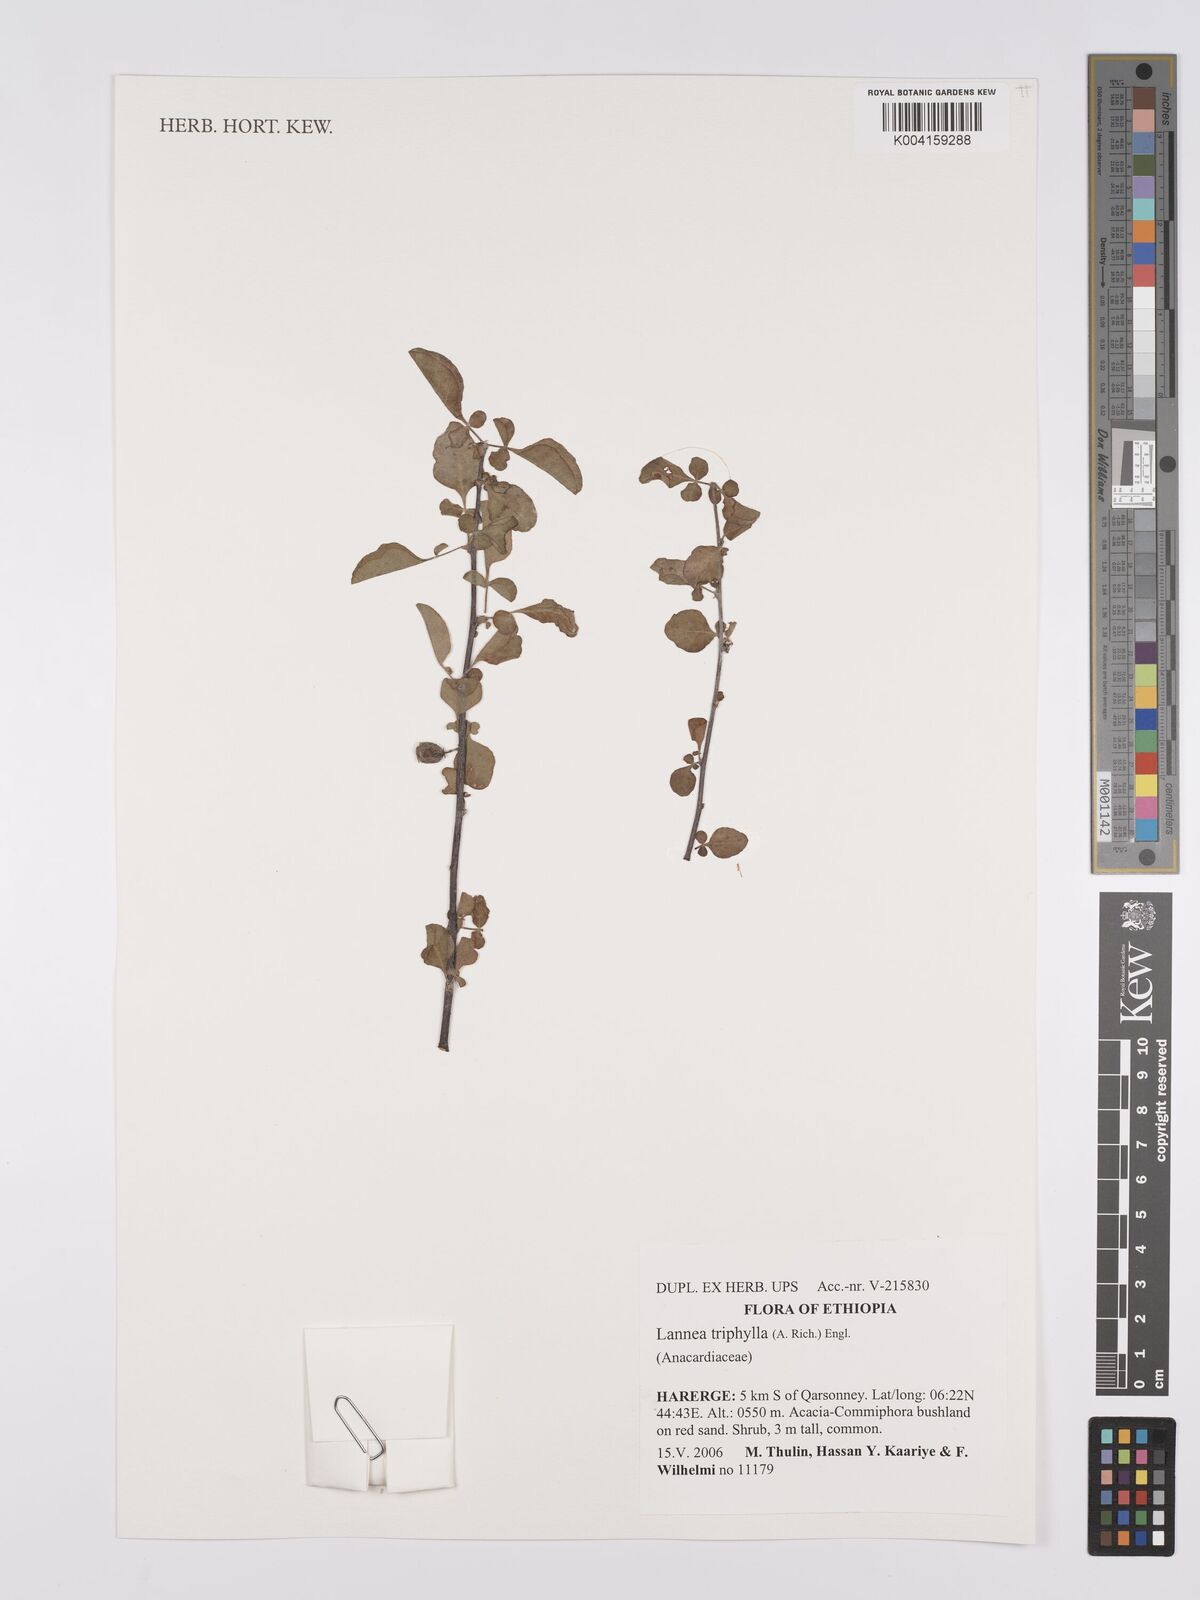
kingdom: Plantae
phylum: Tracheophyta
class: Magnoliopsida
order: Sapindales
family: Anacardiaceae
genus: Lannea
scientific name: Lannea triphylla
